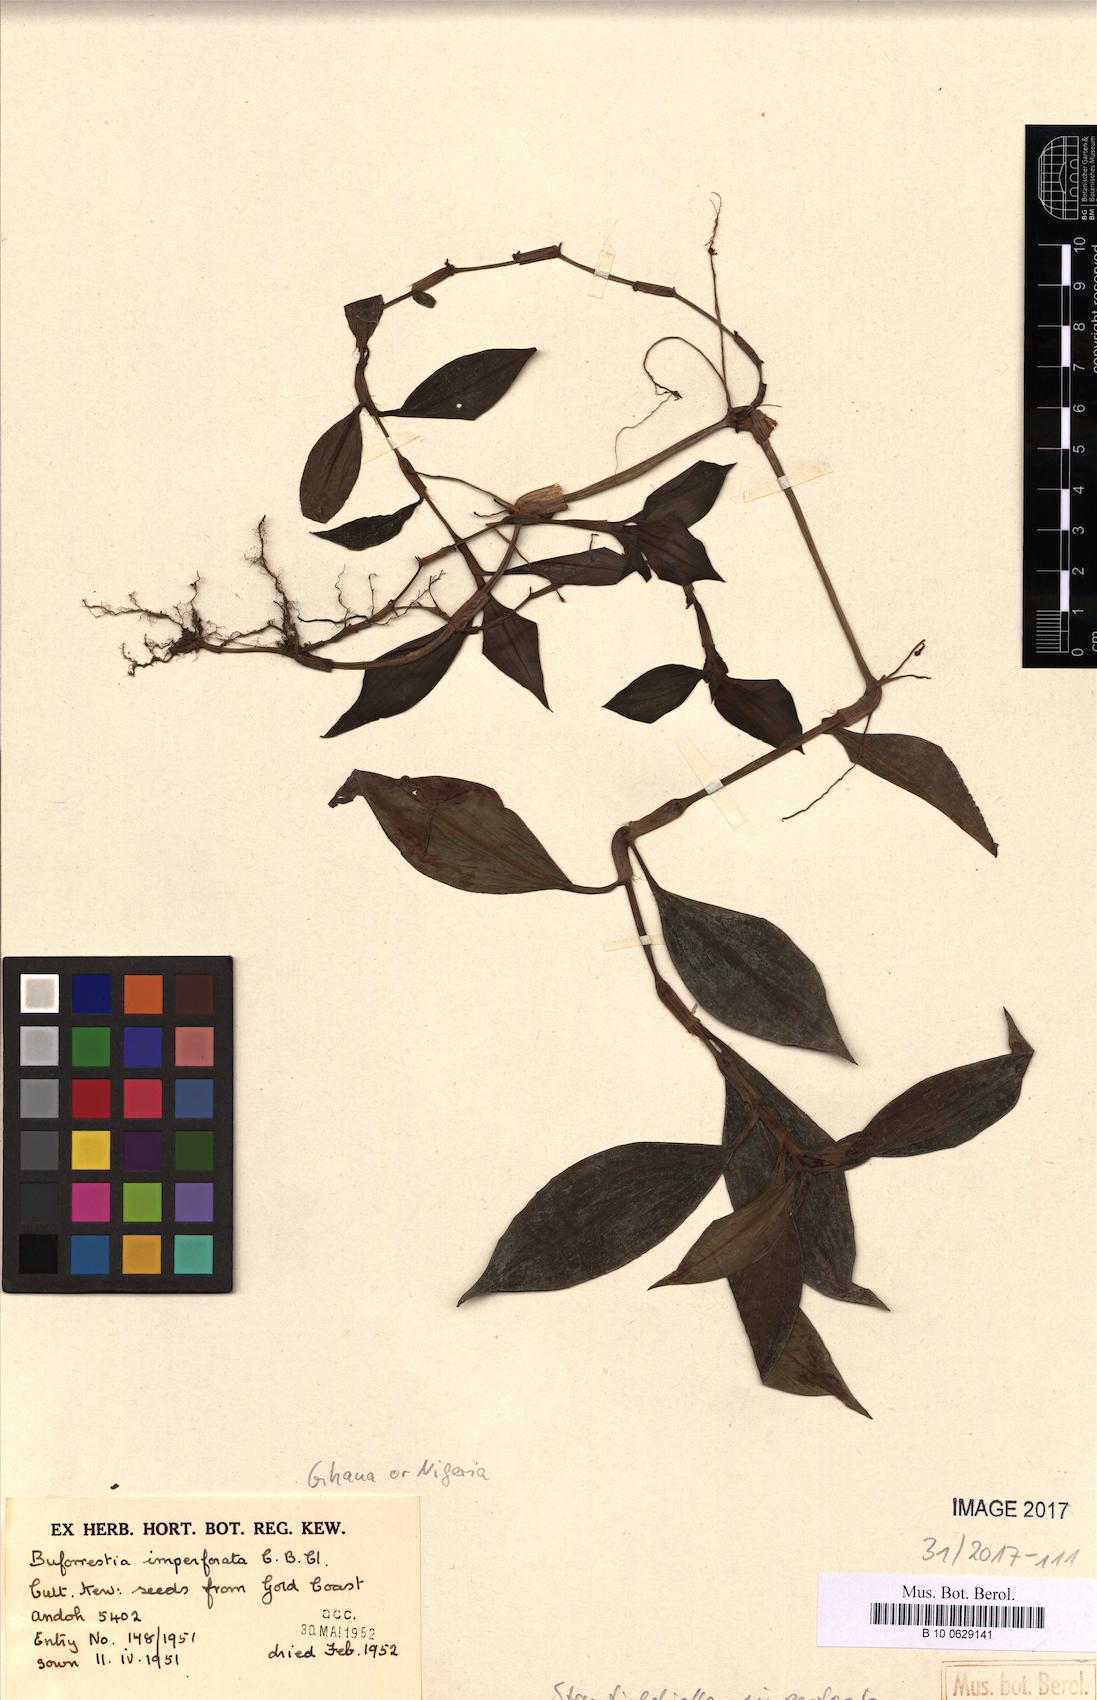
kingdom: Plantae
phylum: Tracheophyta
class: Liliopsida
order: Commelinales
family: Commelinaceae
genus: Stanfieldiella
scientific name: Stanfieldiella imperforata
